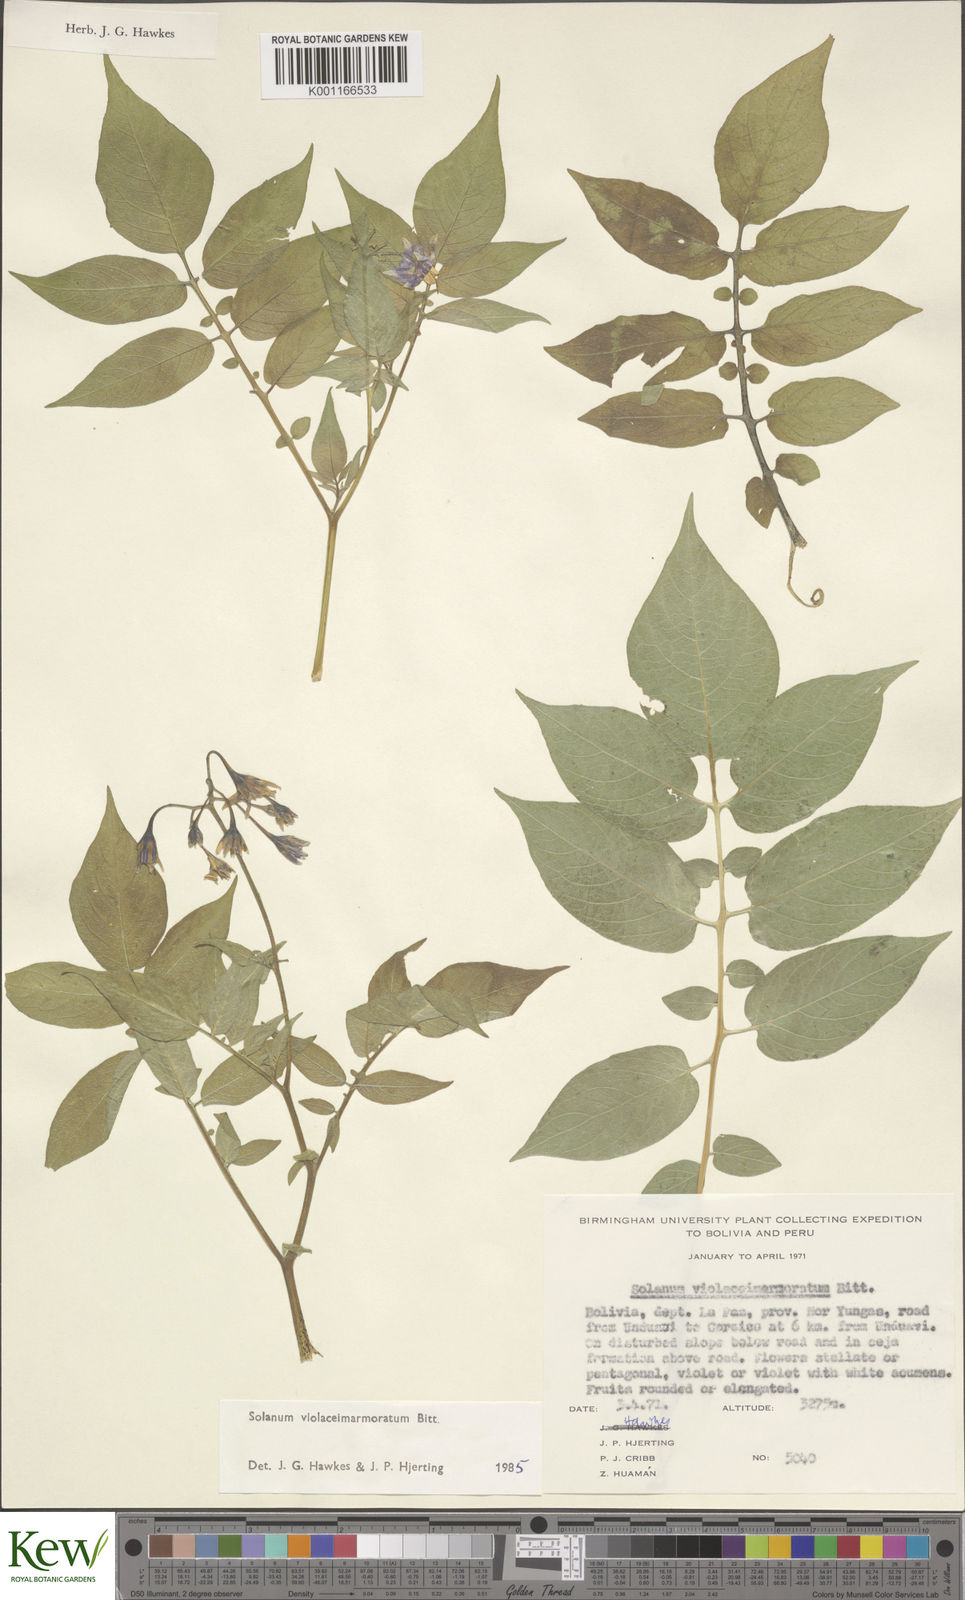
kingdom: Plantae
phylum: Tracheophyta
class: Magnoliopsida
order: Solanales
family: Solanaceae
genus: Solanum
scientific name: Solanum violaceimarmoratum
